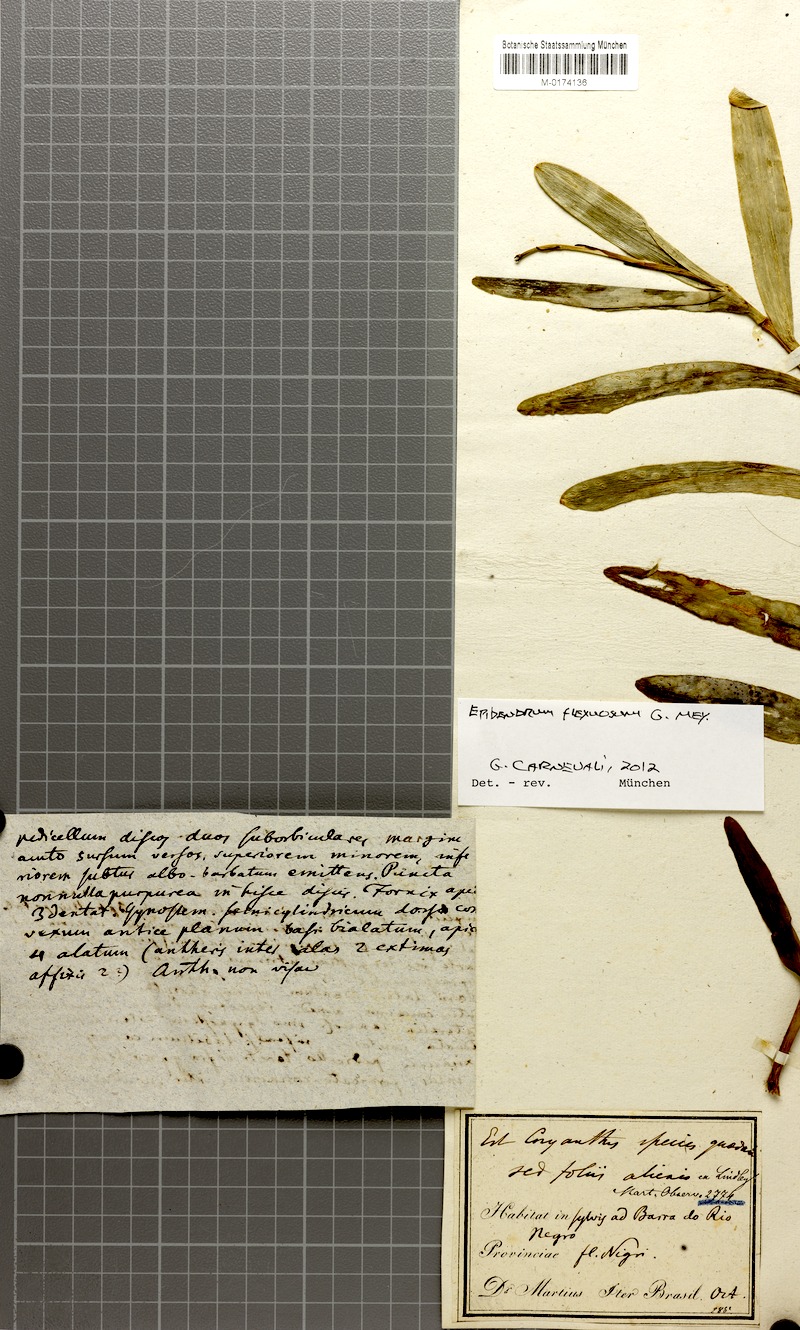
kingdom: Plantae
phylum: Tracheophyta
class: Liliopsida
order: Asparagales
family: Orchidaceae
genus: Epidendrum
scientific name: Epidendrum flexuosum
